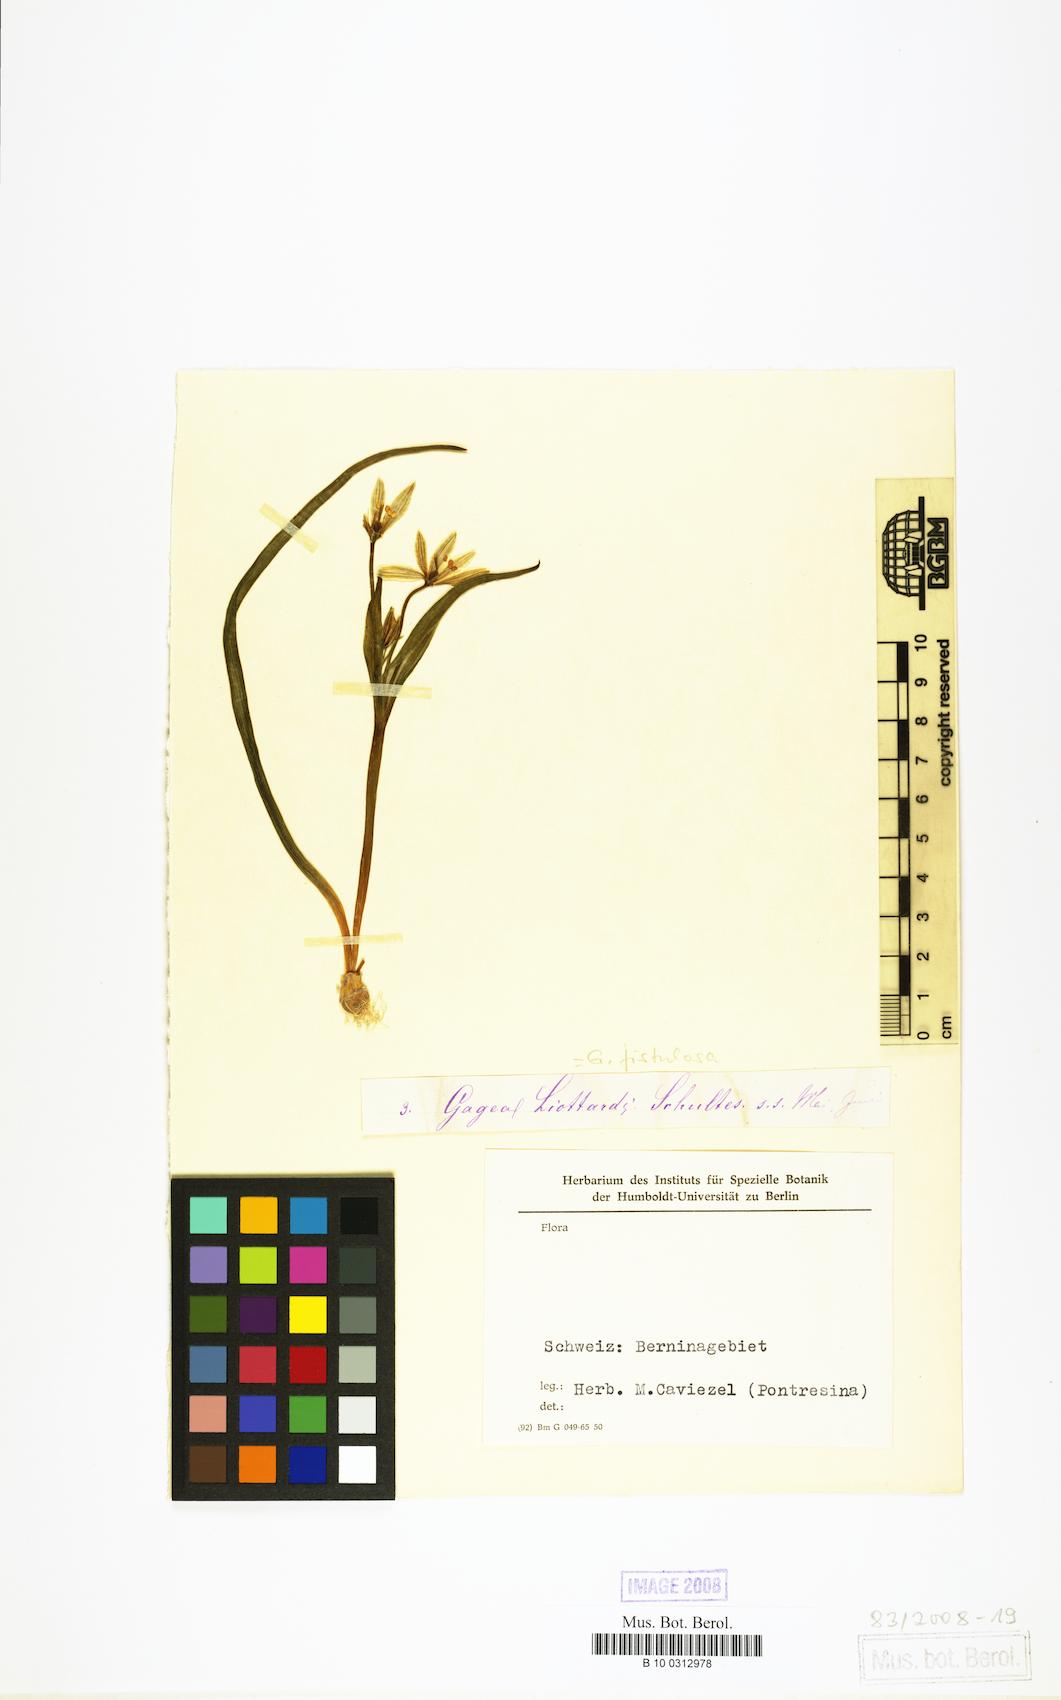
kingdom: Plantae
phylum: Tracheophyta
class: Liliopsida
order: Liliales
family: Liliaceae
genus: Gagea
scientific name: Gagea
